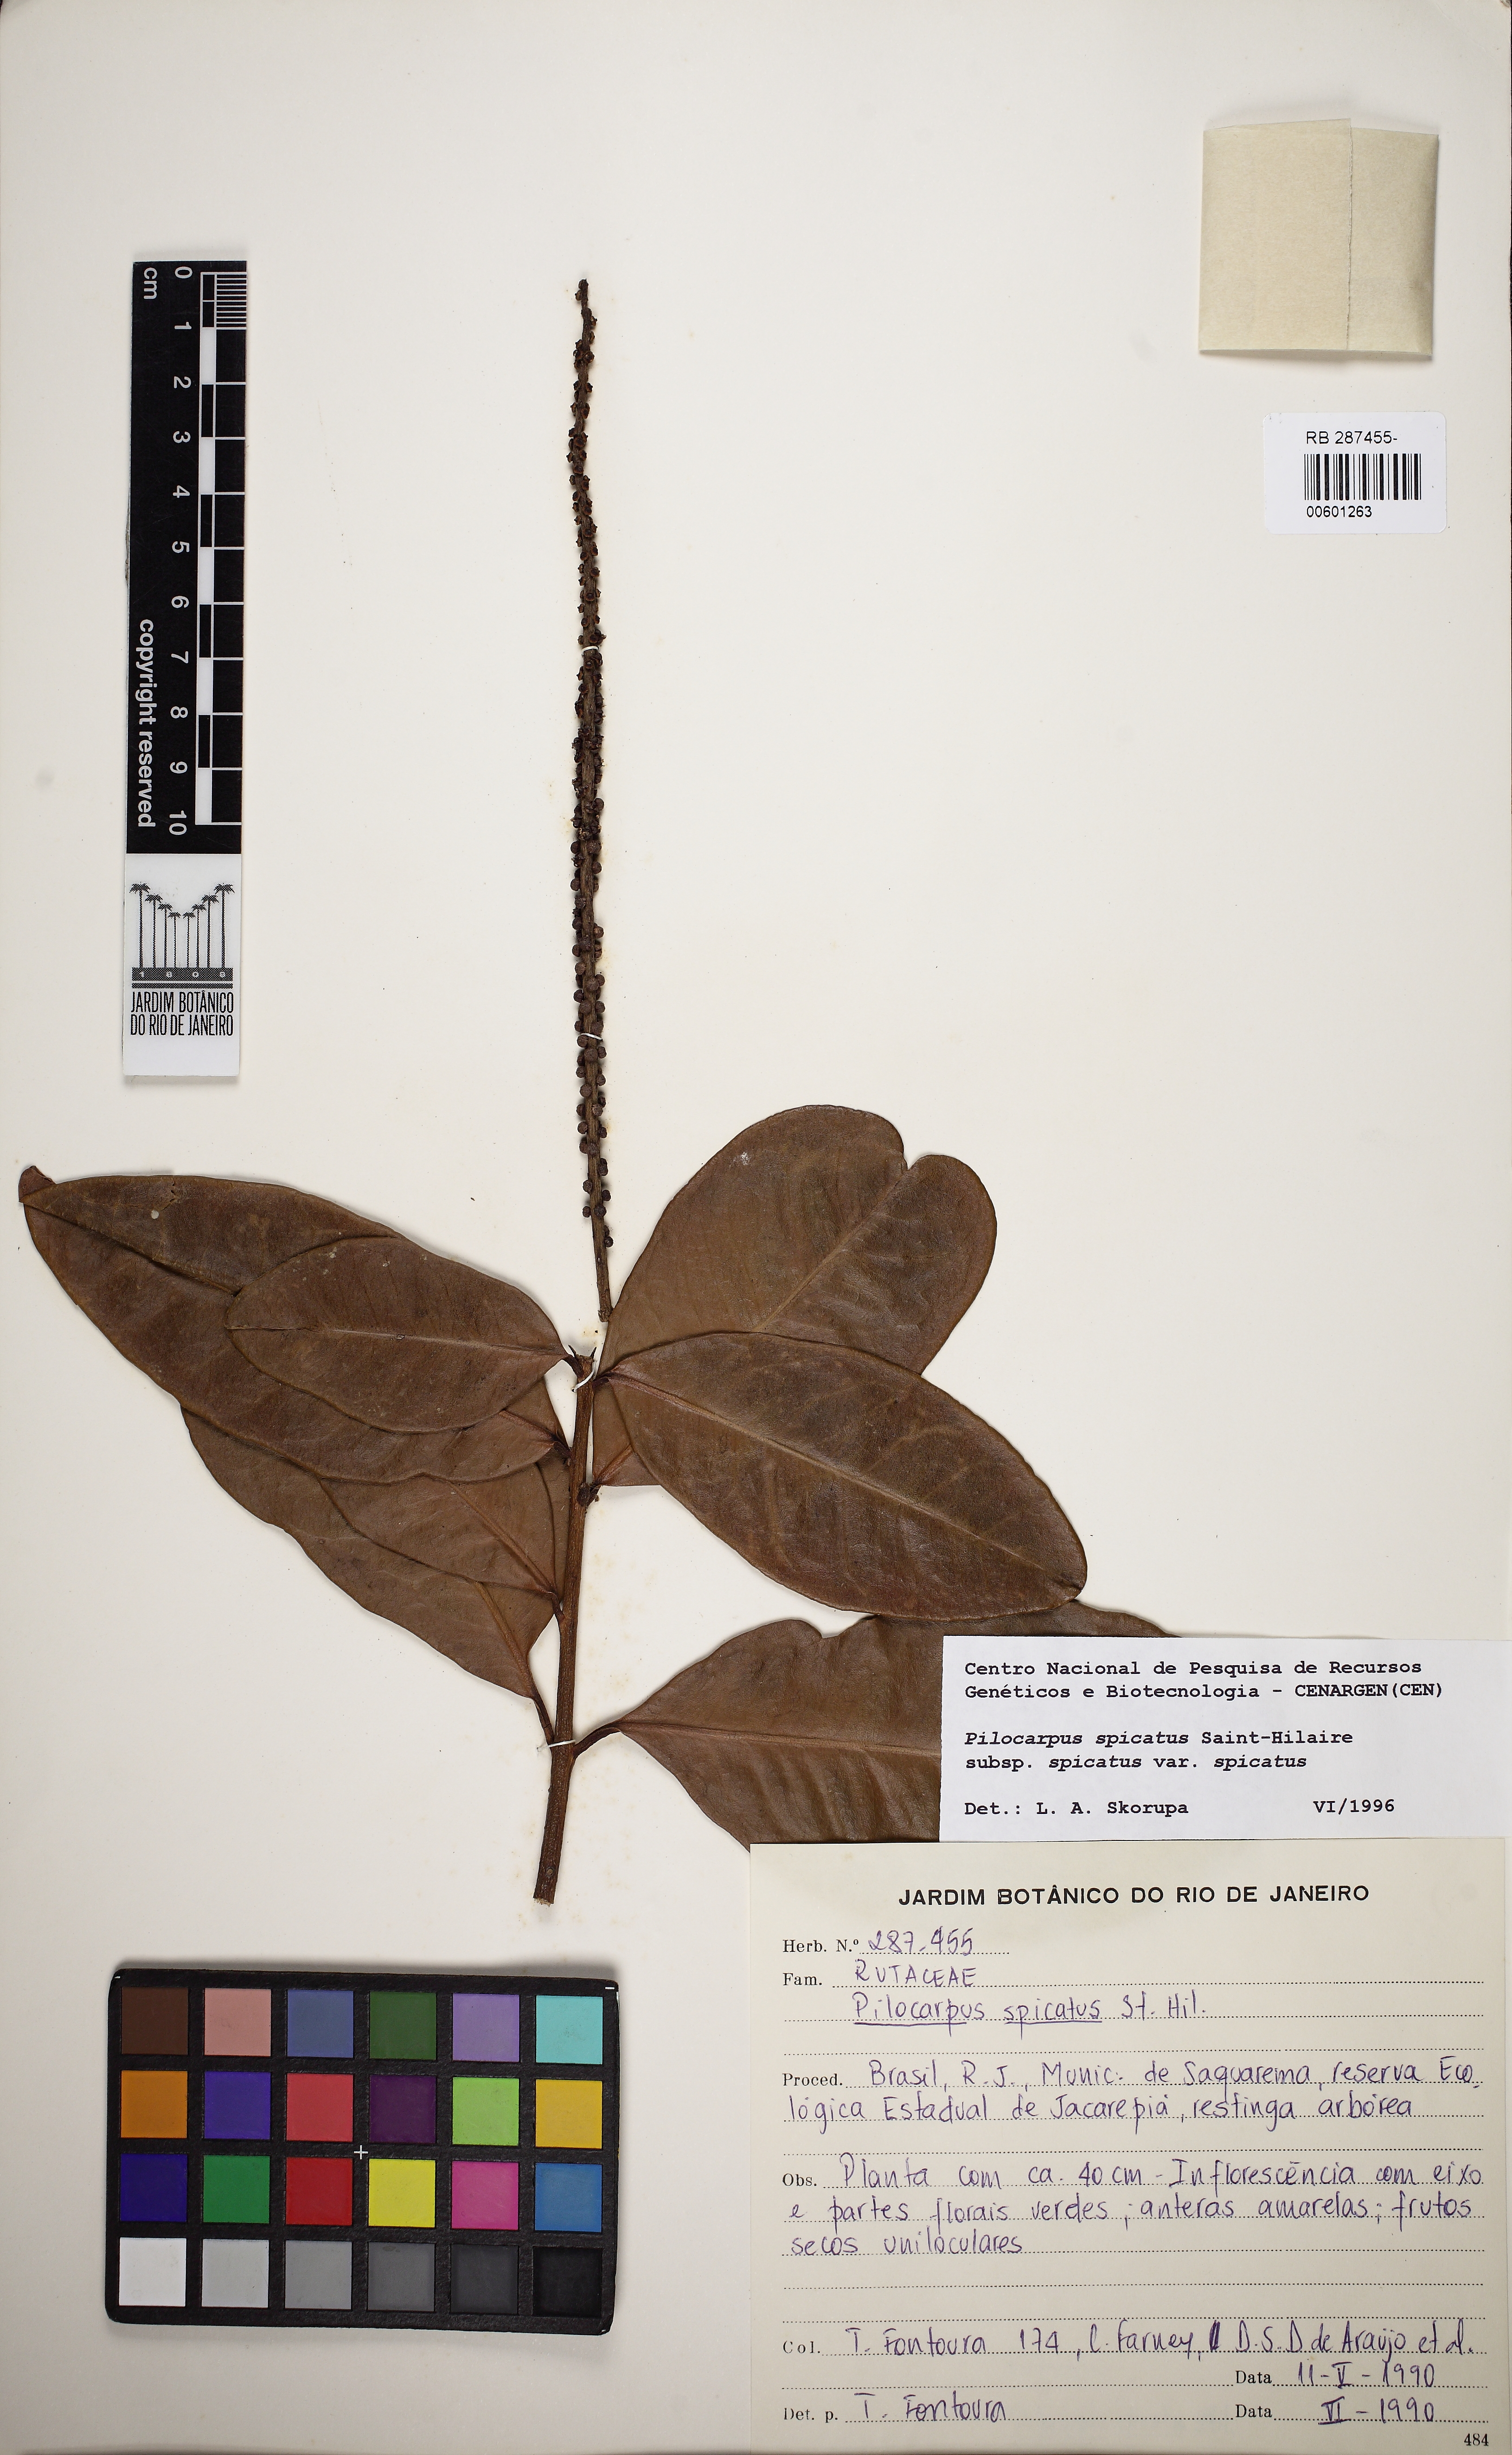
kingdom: Plantae
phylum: Tracheophyta
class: Magnoliopsida
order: Sapindales
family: Rutaceae
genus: Pilocarpus
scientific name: Pilocarpus spicatus
